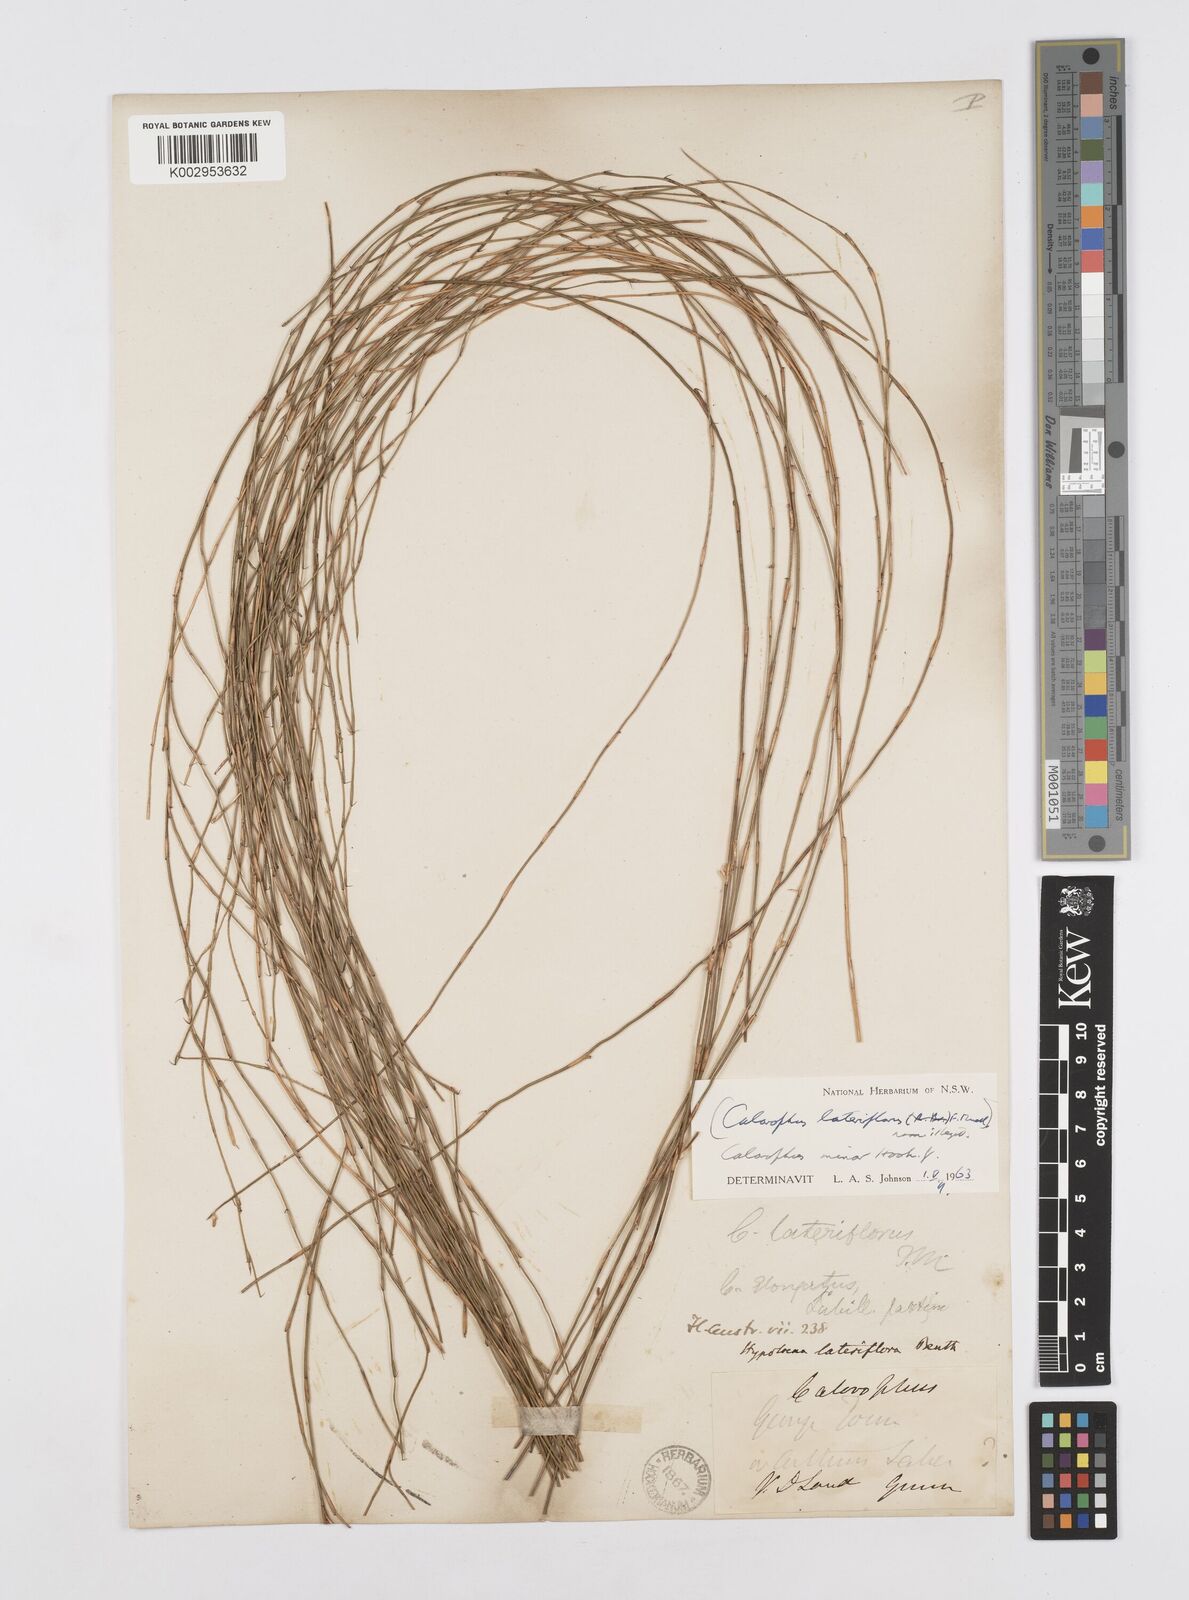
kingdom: Plantae
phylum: Tracheophyta
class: Liliopsida
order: Poales
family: Restionaceae
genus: Empodisma
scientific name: Empodisma minus
